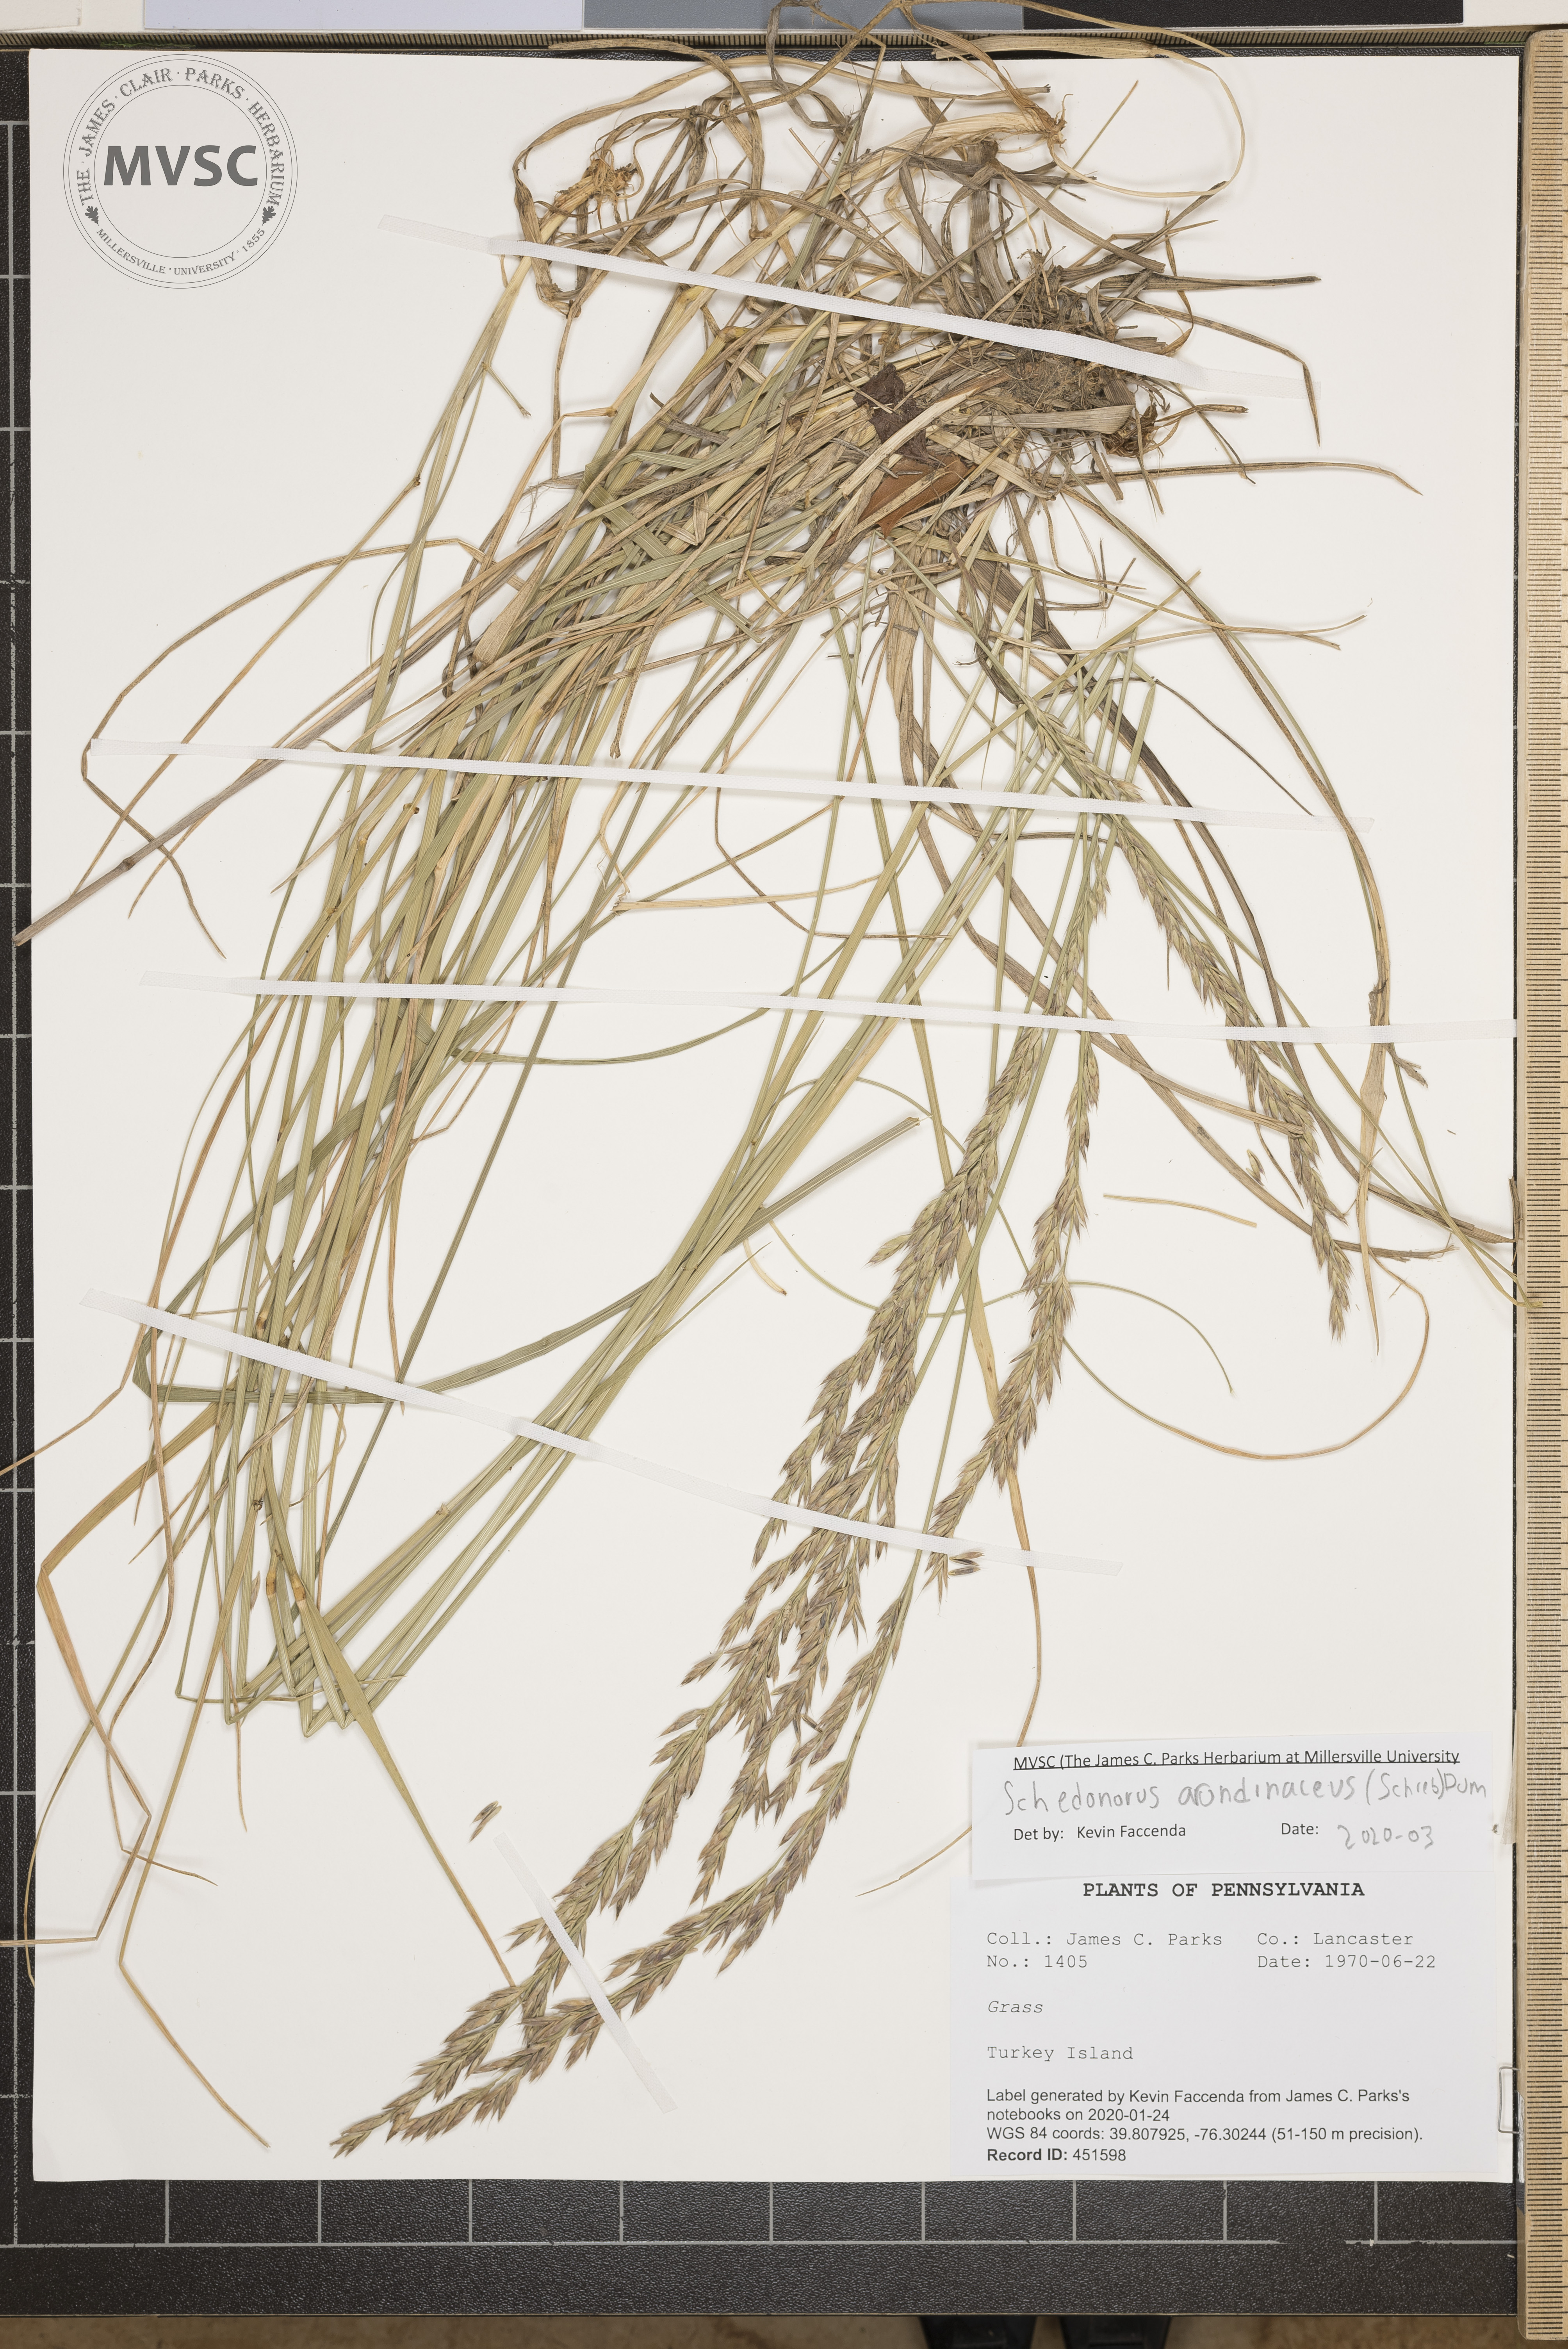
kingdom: Plantae
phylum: Tracheophyta
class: Liliopsida
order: Poales
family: Poaceae
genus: Lolium
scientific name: Lolium arundinaceum
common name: Reed fescue
